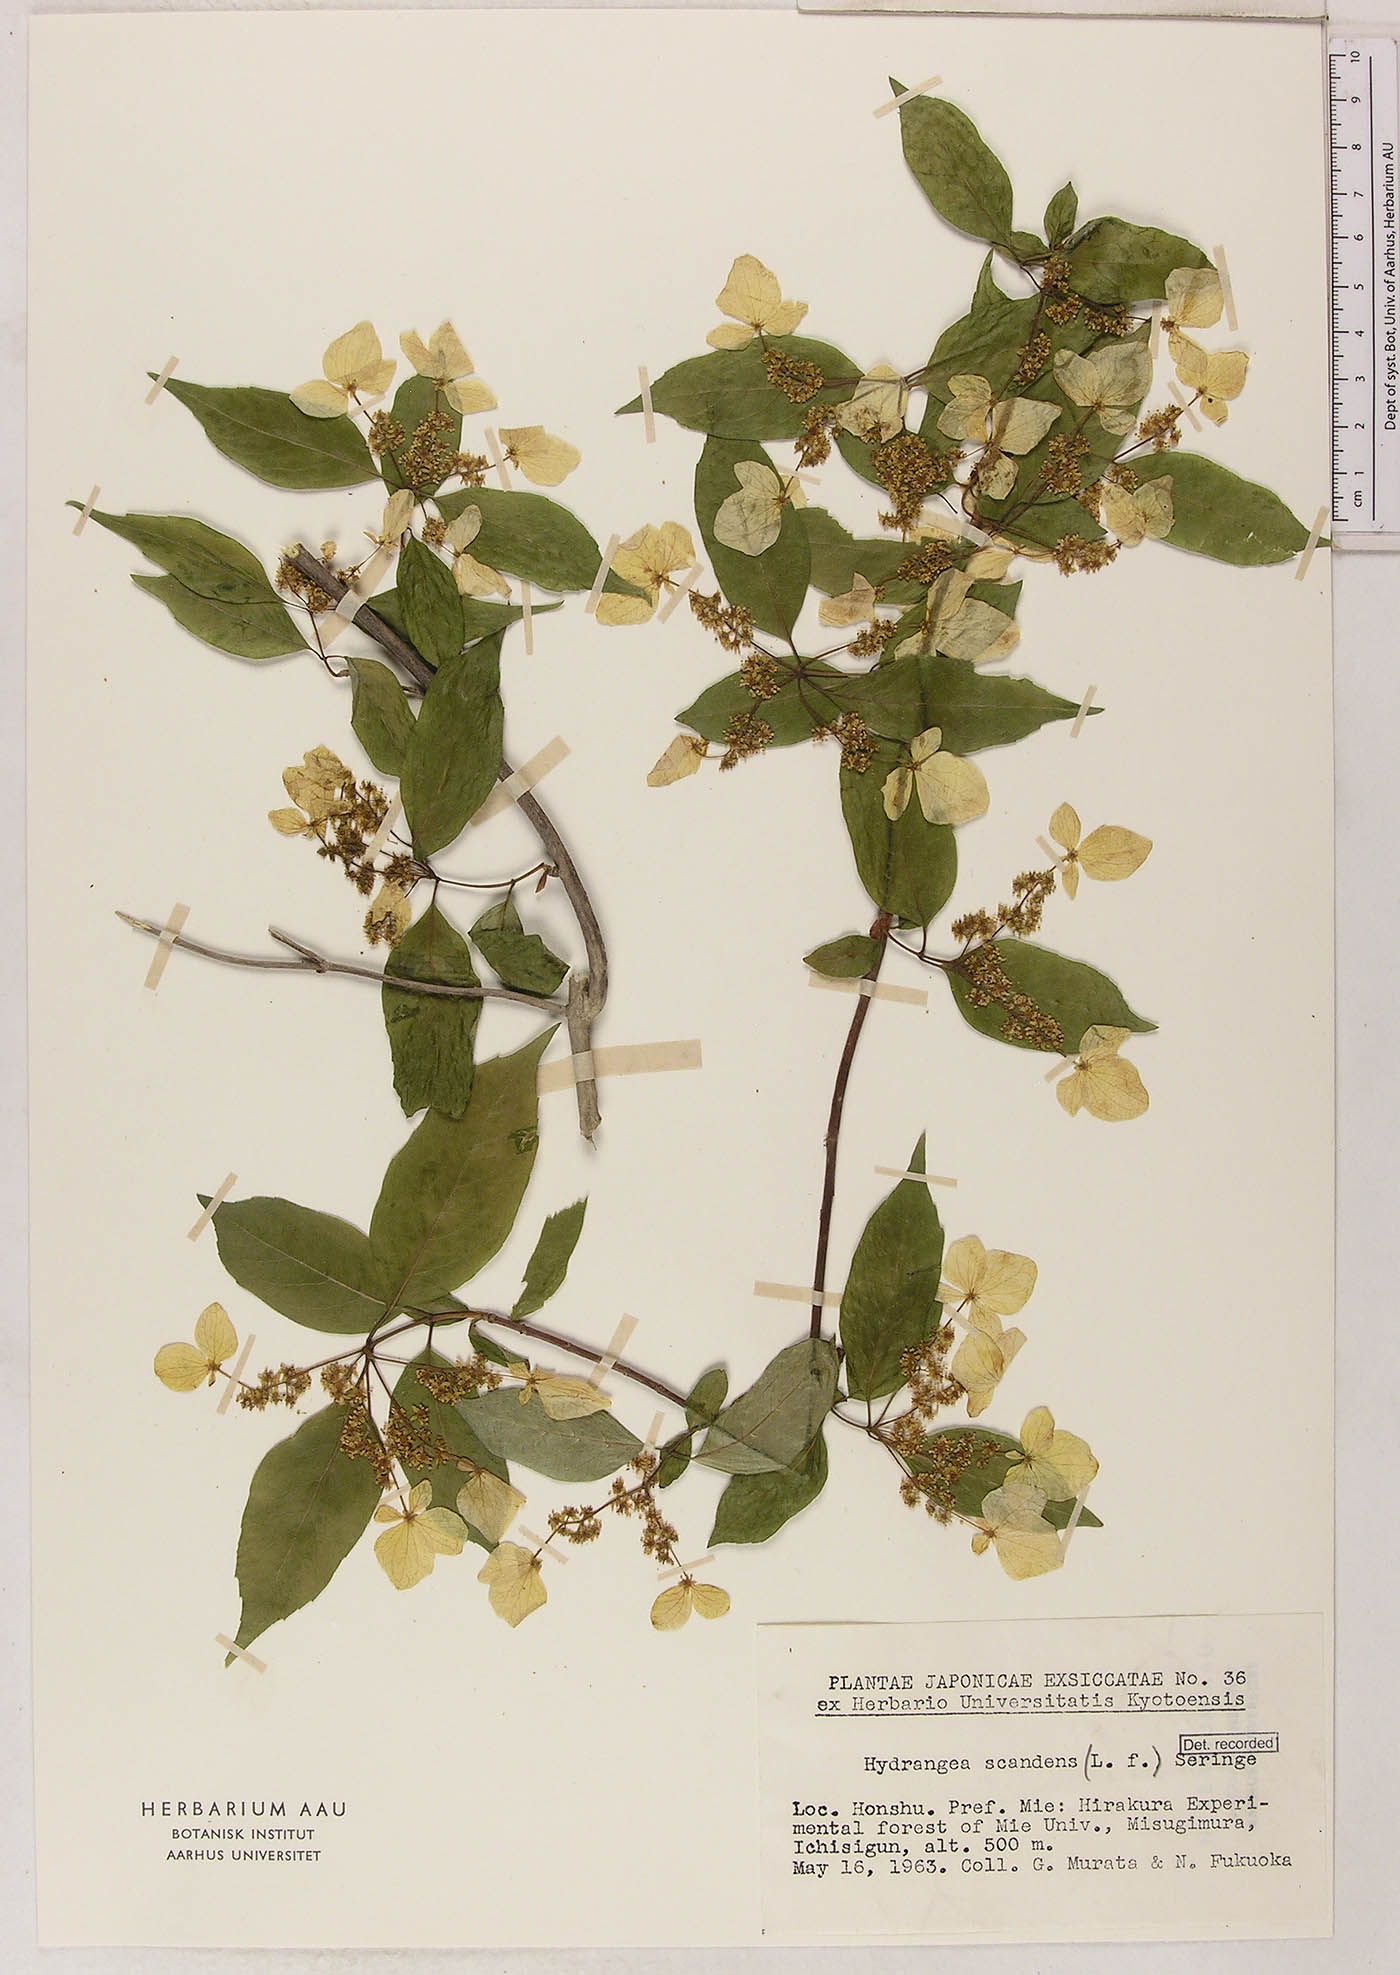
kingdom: Plantae
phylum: Tracheophyta
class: Magnoliopsida
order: Cornales
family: Hydrangeaceae
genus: Hydrangea
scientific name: Hydrangea scandens
